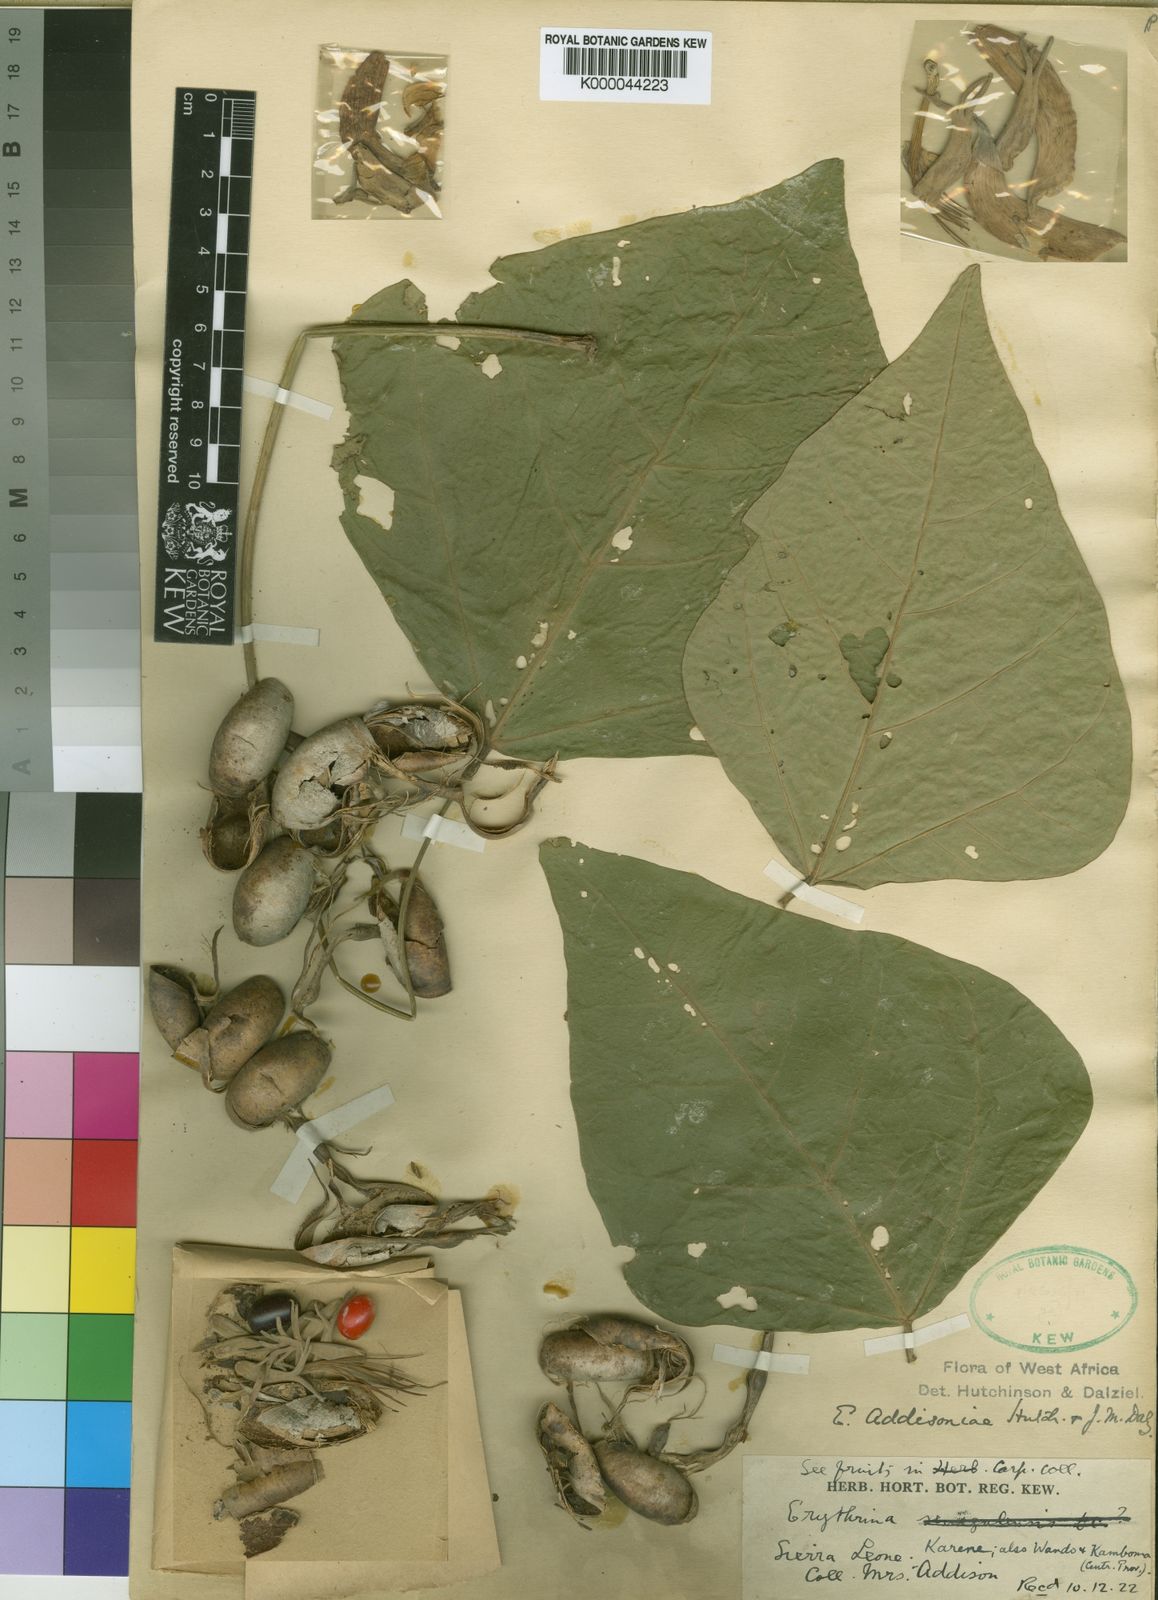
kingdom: Plantae
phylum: Tracheophyta
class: Magnoliopsida
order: Fabales
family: Fabaceae
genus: Erythrina
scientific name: Erythrina addisoniae
